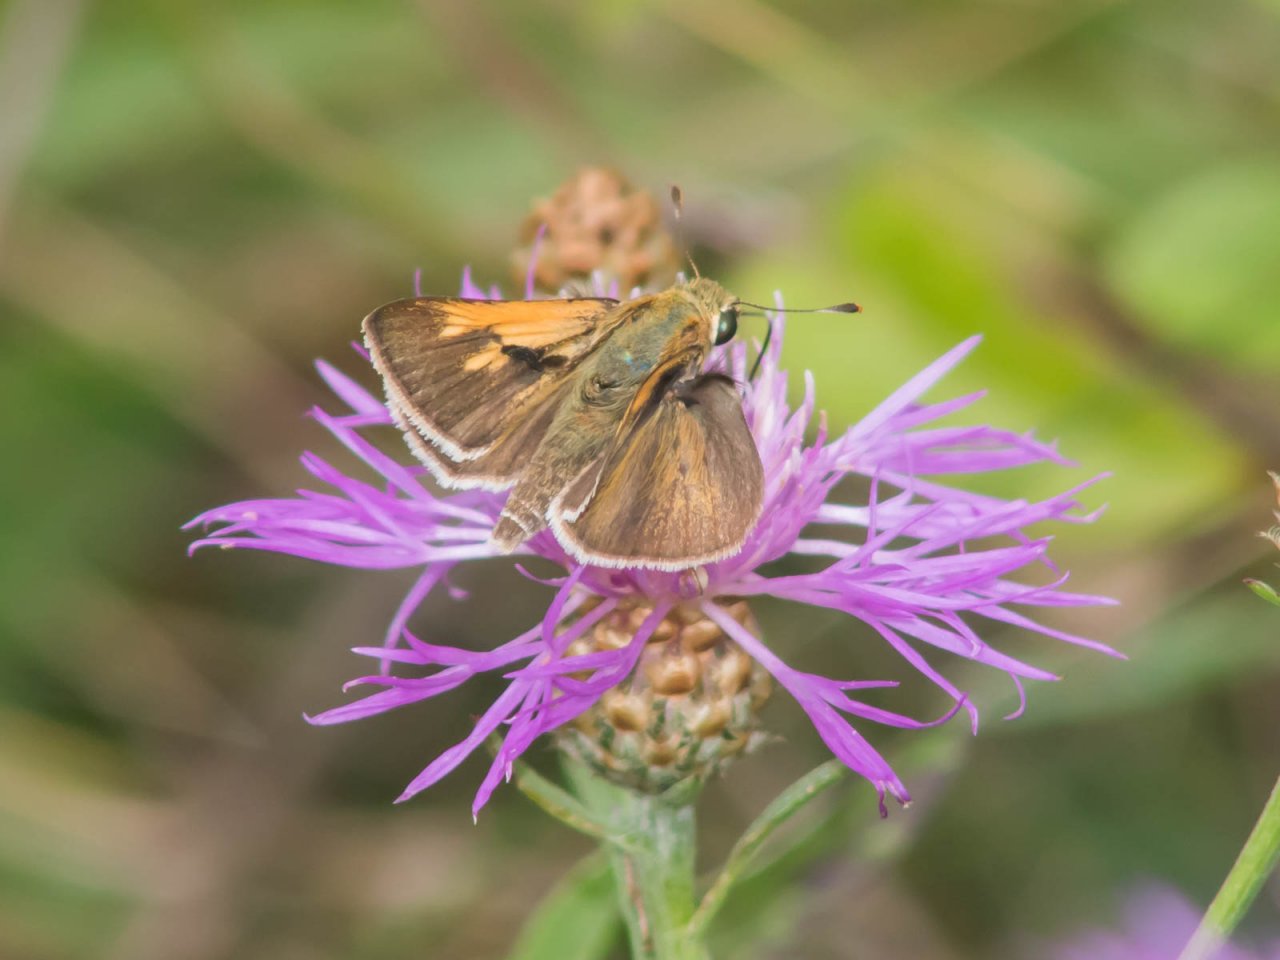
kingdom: Animalia
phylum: Arthropoda
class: Insecta
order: Lepidoptera
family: Hesperiidae
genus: Polites
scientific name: Polites themistocles
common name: Tawny-edged Skipper
